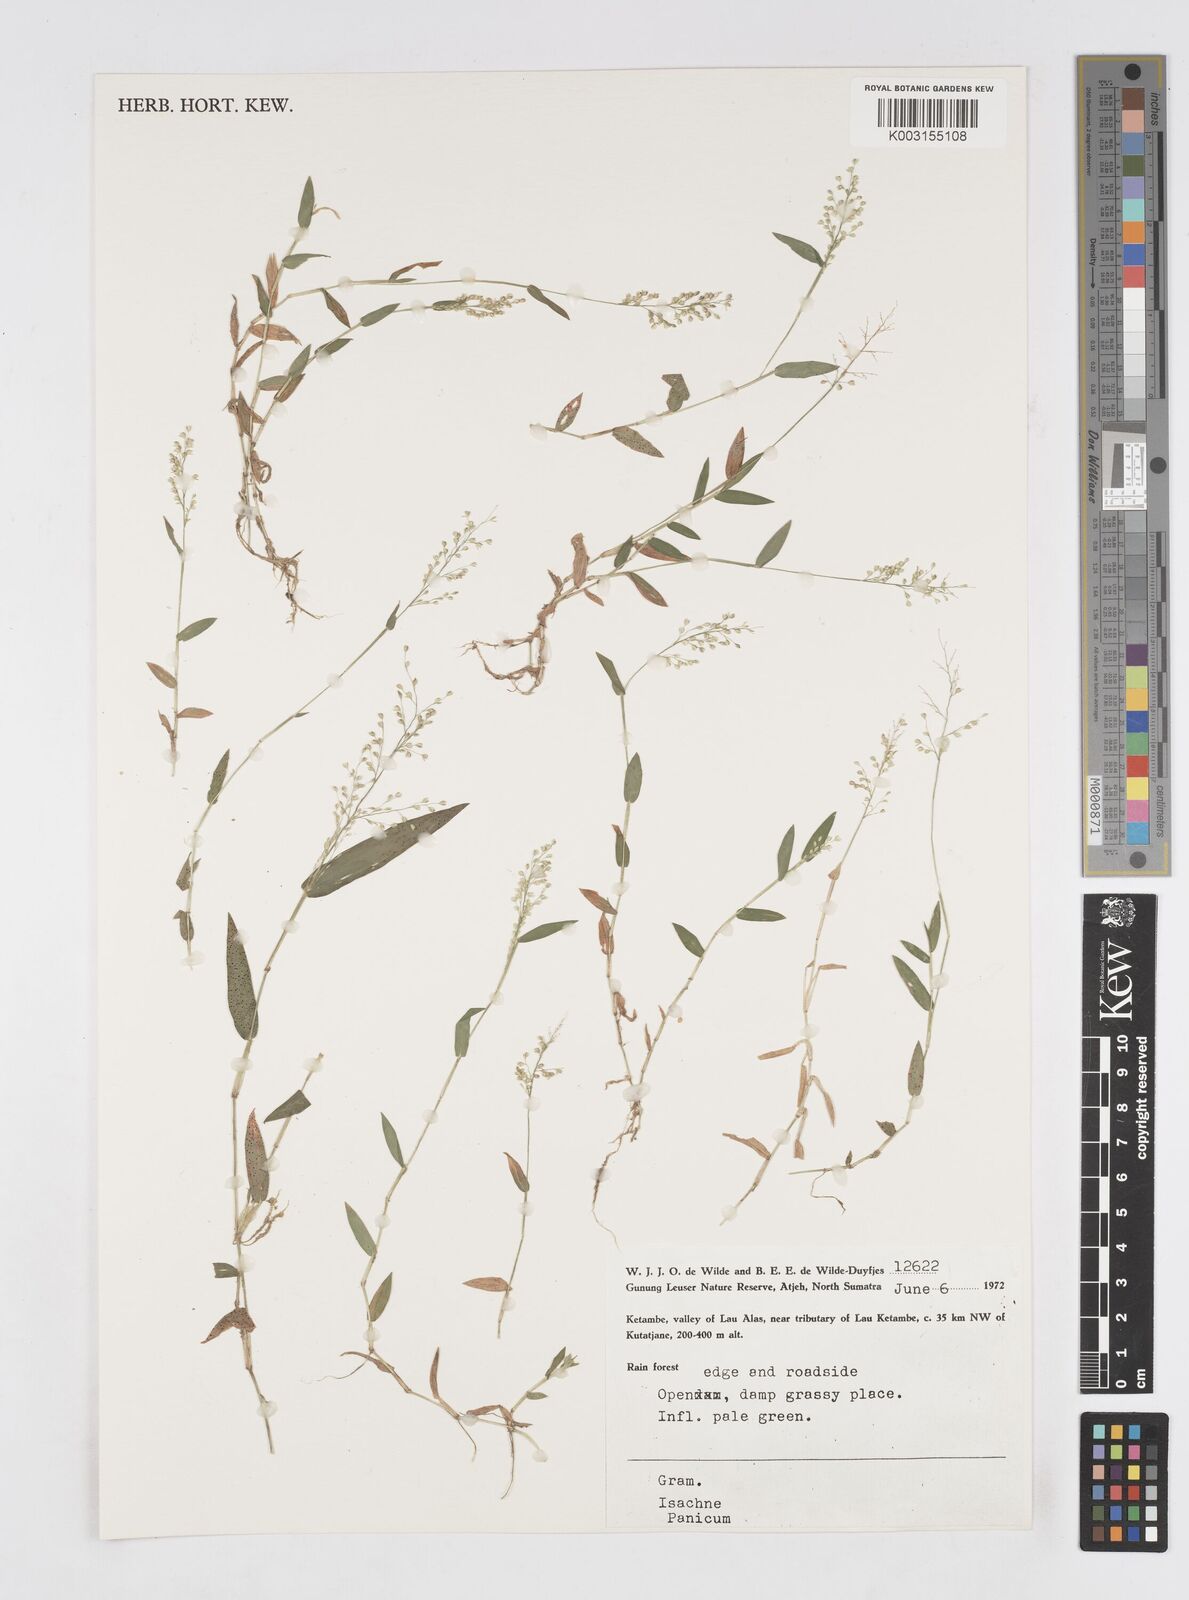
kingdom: Plantae
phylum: Tracheophyta
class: Liliopsida
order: Poales
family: Poaceae
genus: Isachne
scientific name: Isachne
